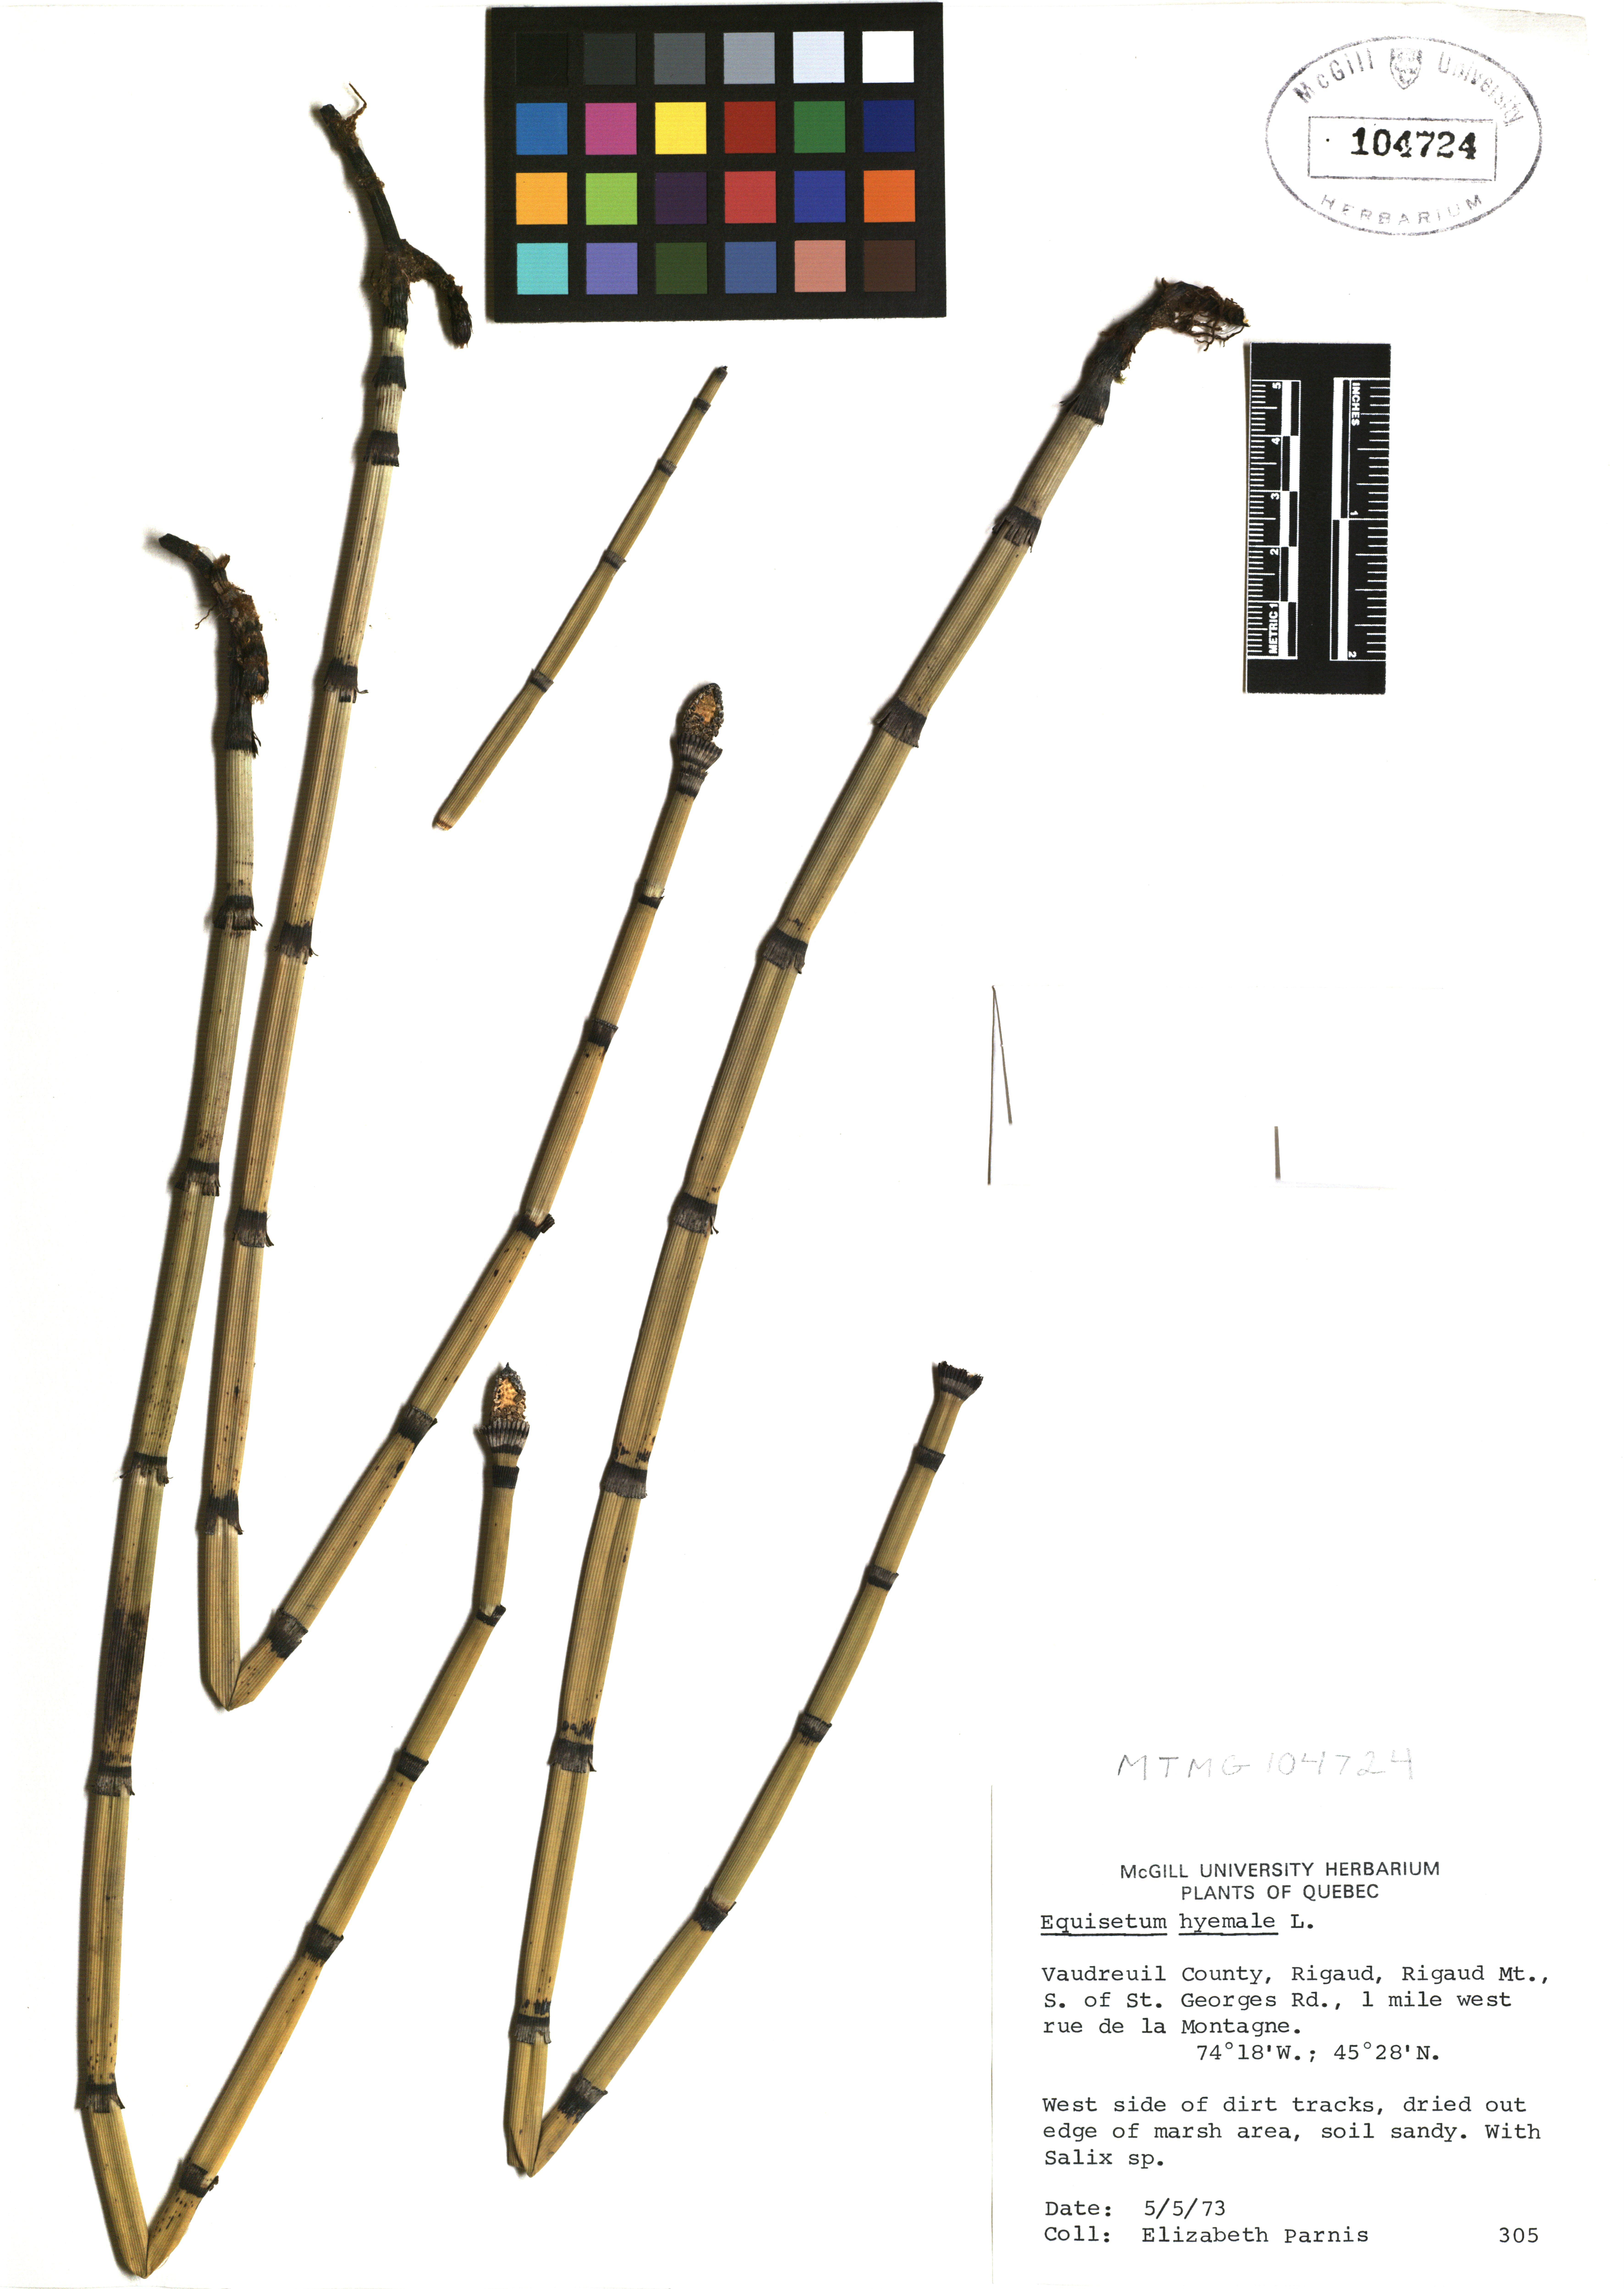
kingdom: Plantae
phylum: Tracheophyta
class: Polypodiopsida
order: Equisetales
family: Equisetaceae
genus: Equisetum
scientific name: Equisetum hyemale
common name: Rough horsetail
